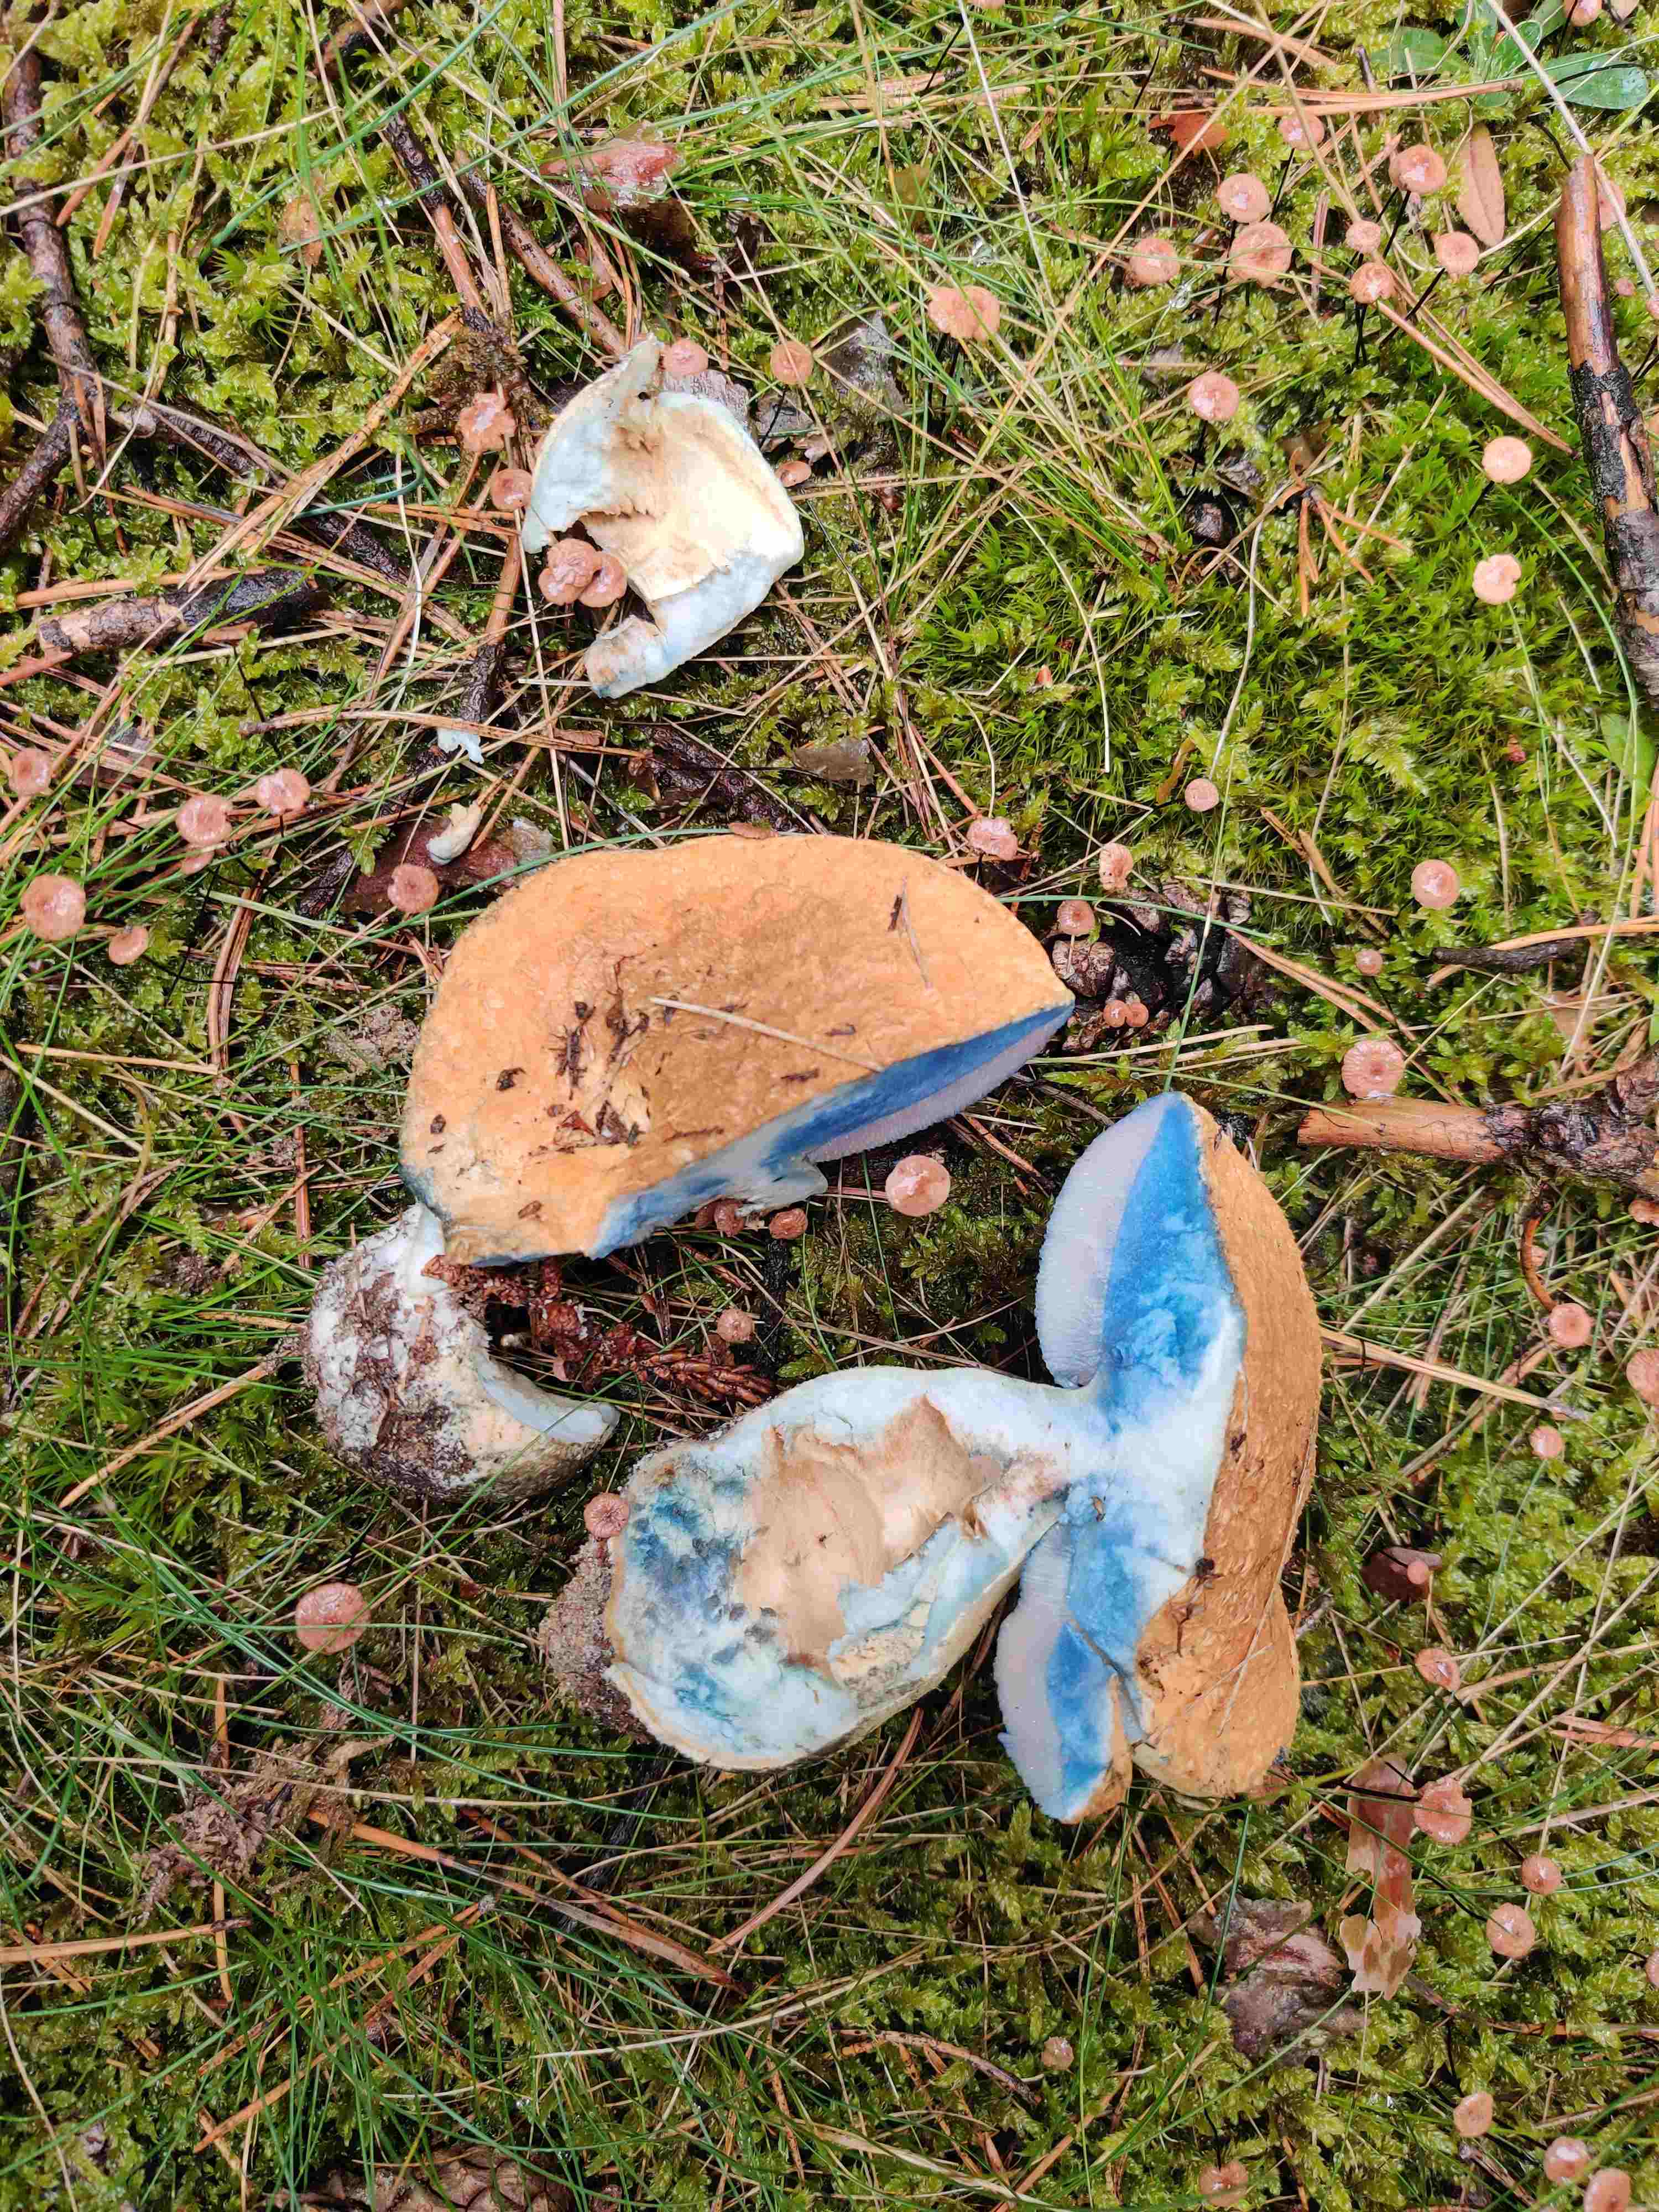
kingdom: Fungi
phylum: Basidiomycota
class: Agaricomycetes
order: Boletales
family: Gyroporaceae
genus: Gyroporus
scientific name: Gyroporus cyanescens
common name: blånende kammerrørhat
